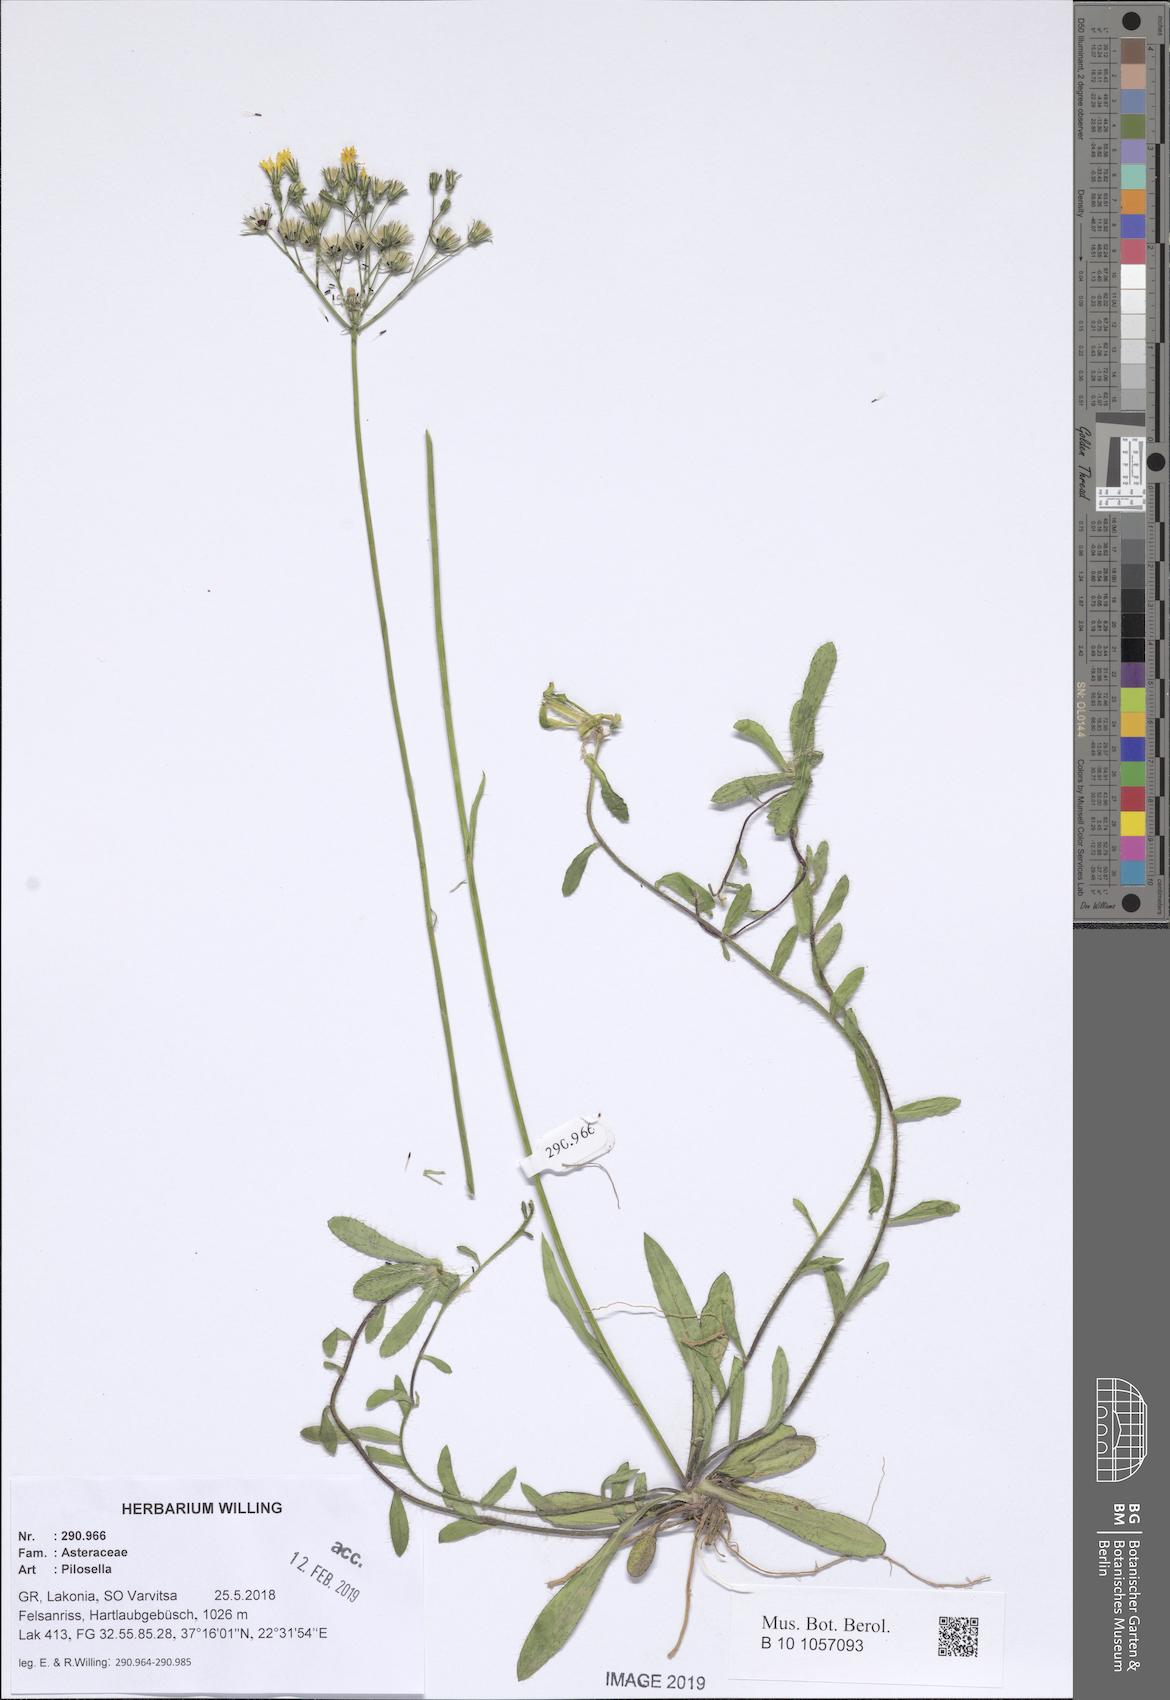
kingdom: Plantae
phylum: Tracheophyta
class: Magnoliopsida
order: Asterales
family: Asteraceae
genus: Pilosella
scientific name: Pilosella
